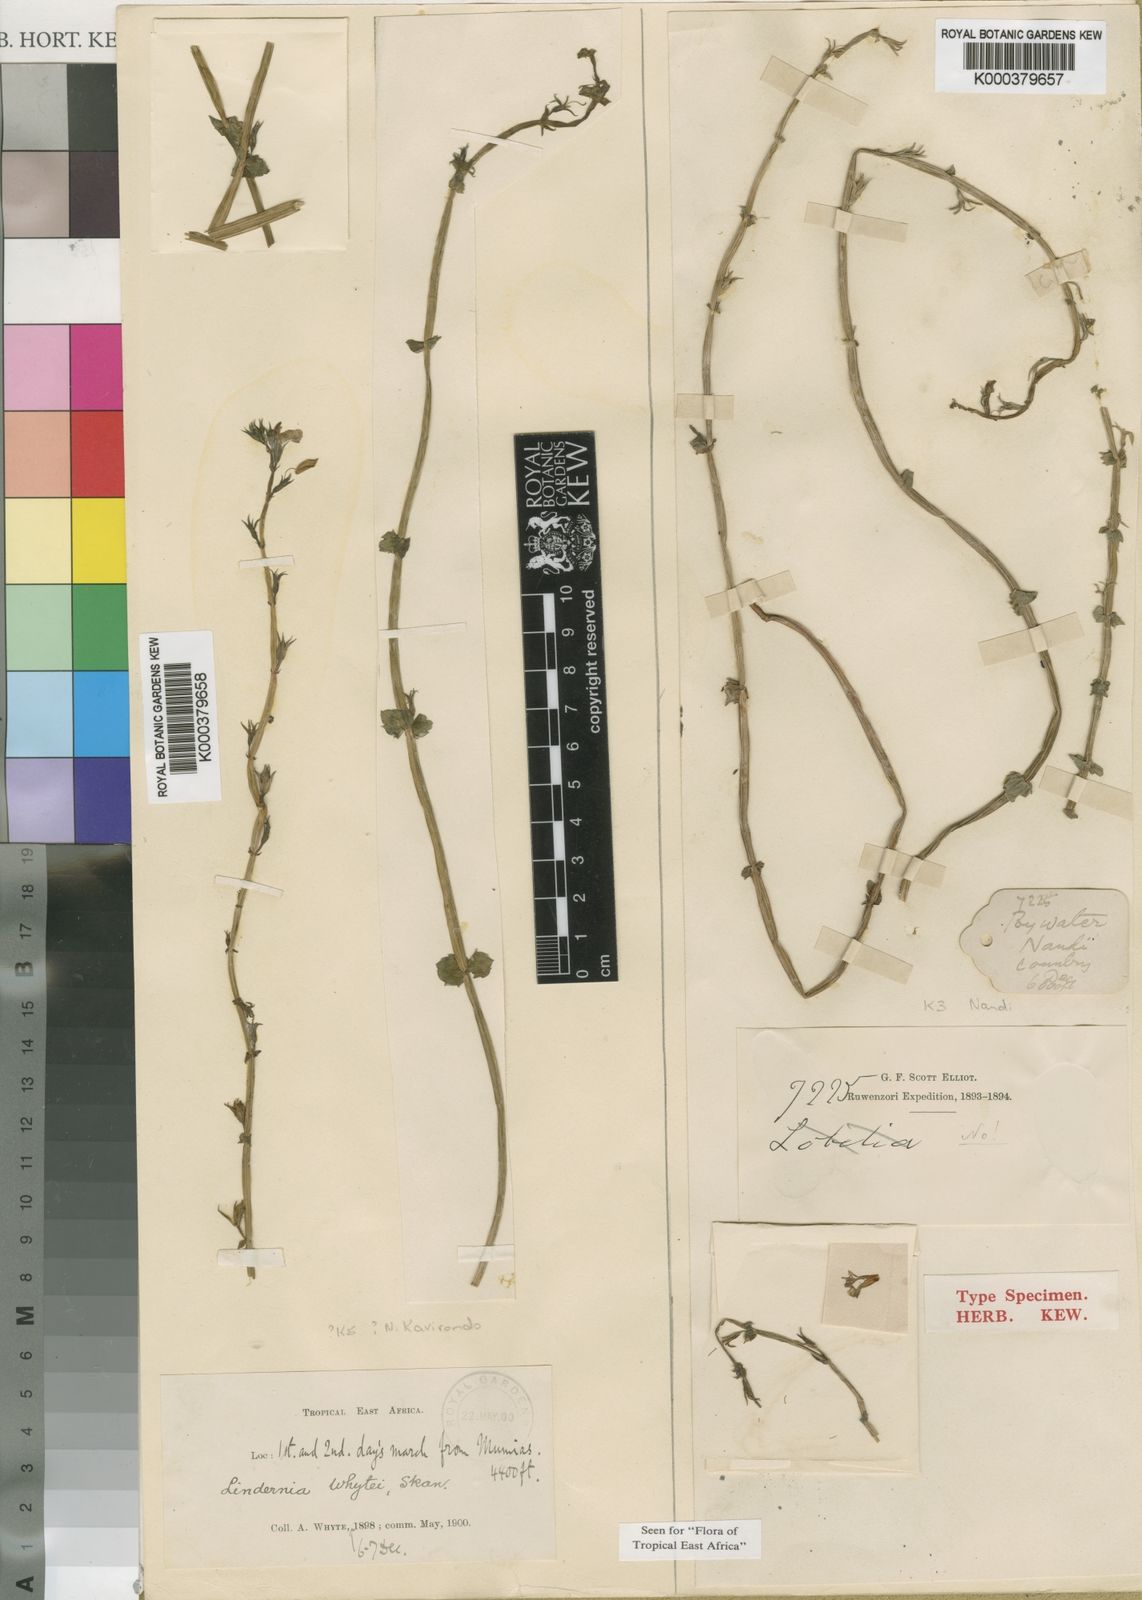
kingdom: Plantae
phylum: Tracheophyta
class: Magnoliopsida
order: Lamiales
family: Linderniaceae
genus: Crepidorhopalon
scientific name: Crepidorhopalon whytei
